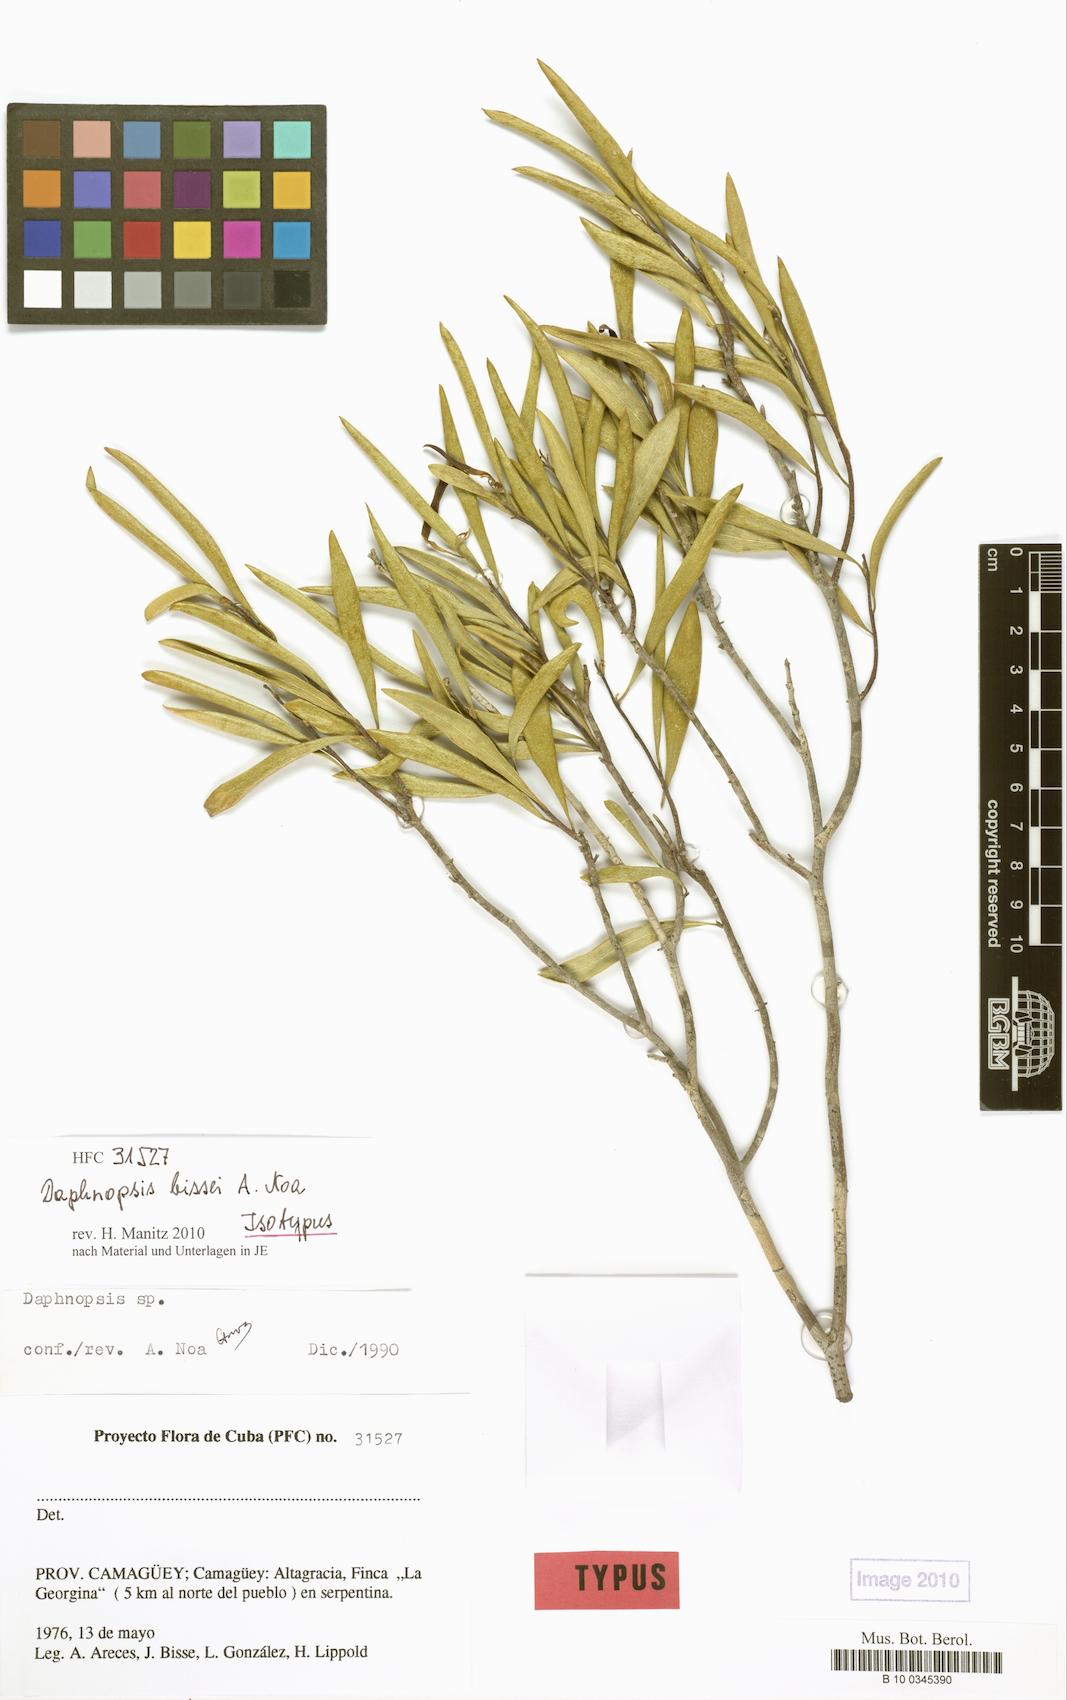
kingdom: Plantae
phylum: Tracheophyta
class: Magnoliopsida
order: Malvales
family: Thymelaeaceae
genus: Daphnopsis
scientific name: Daphnopsis bissei
